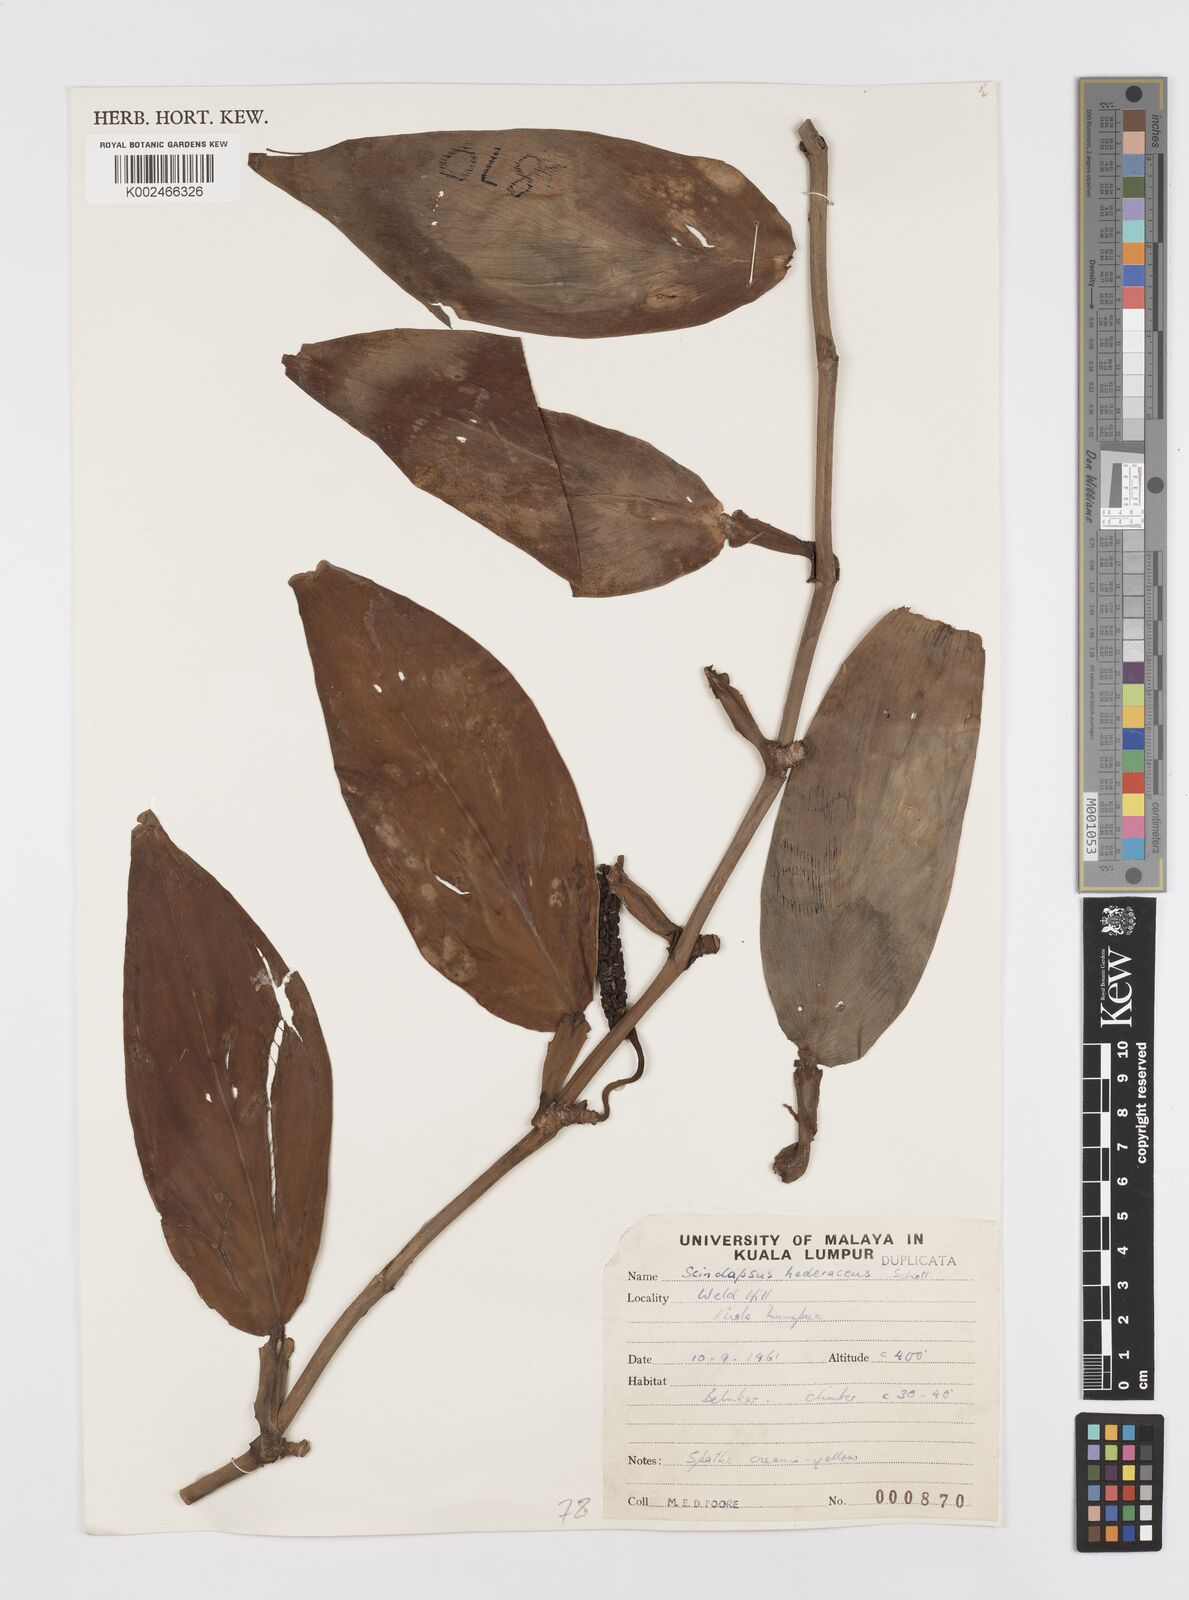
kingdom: Plantae
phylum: Tracheophyta
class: Liliopsida
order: Alismatales
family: Araceae
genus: Scindapsus
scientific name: Scindapsus hederaceus
